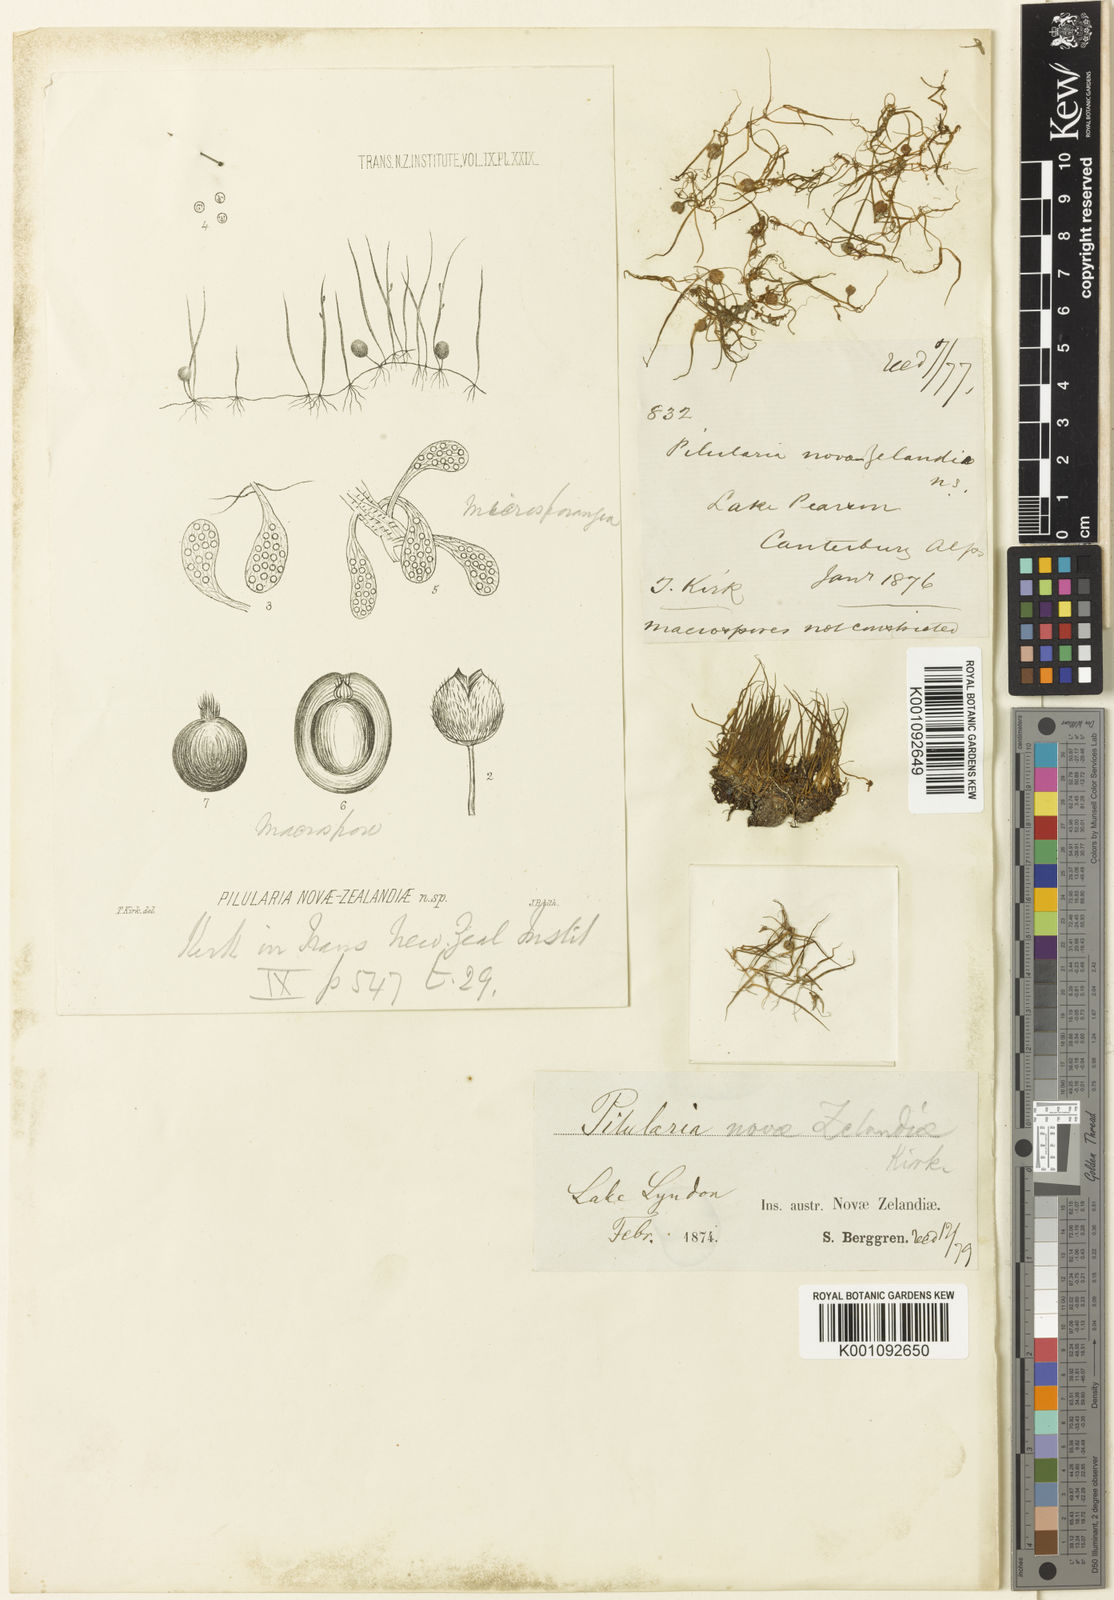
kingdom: Plantae
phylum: Tracheophyta
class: Polypodiopsida
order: Salviniales
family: Marsileaceae
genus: Pilularia
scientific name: Pilularia novae-hollandiae
